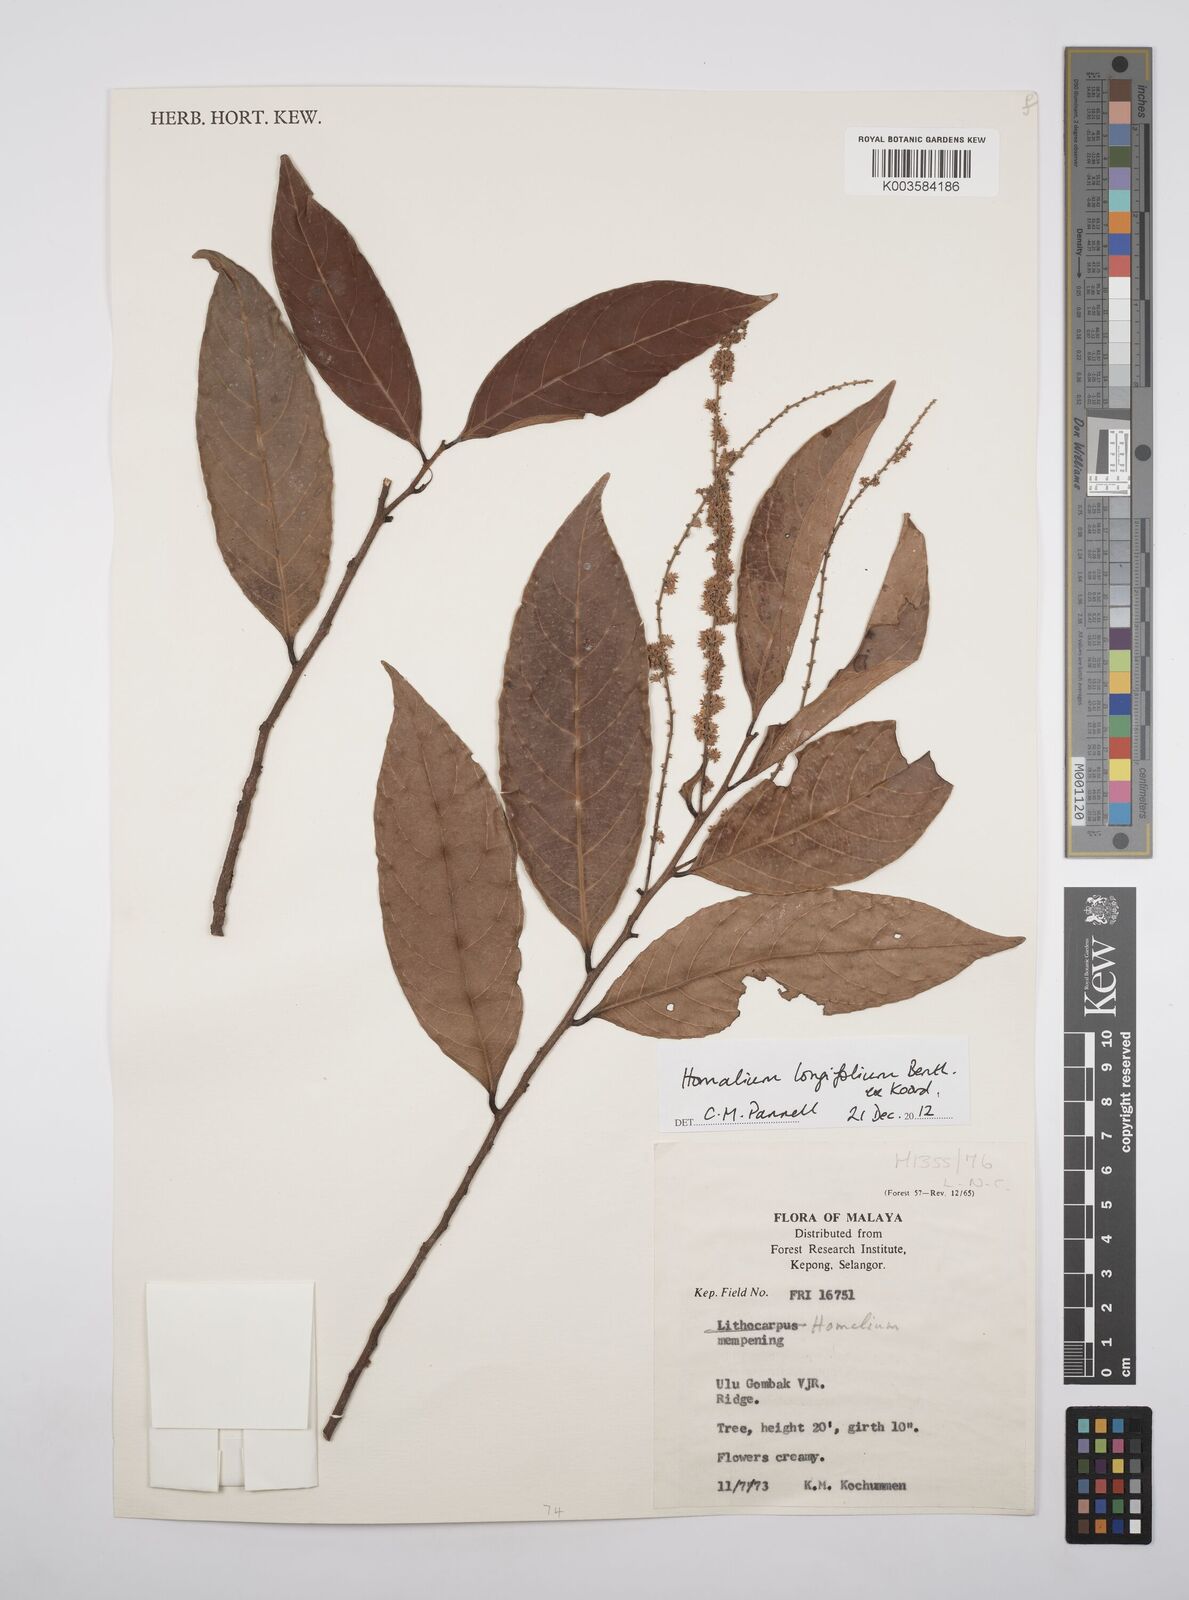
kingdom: Plantae
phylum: Tracheophyta
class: Magnoliopsida
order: Malpighiales
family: Salicaceae
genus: Homalium
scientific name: Homalium longifolium
